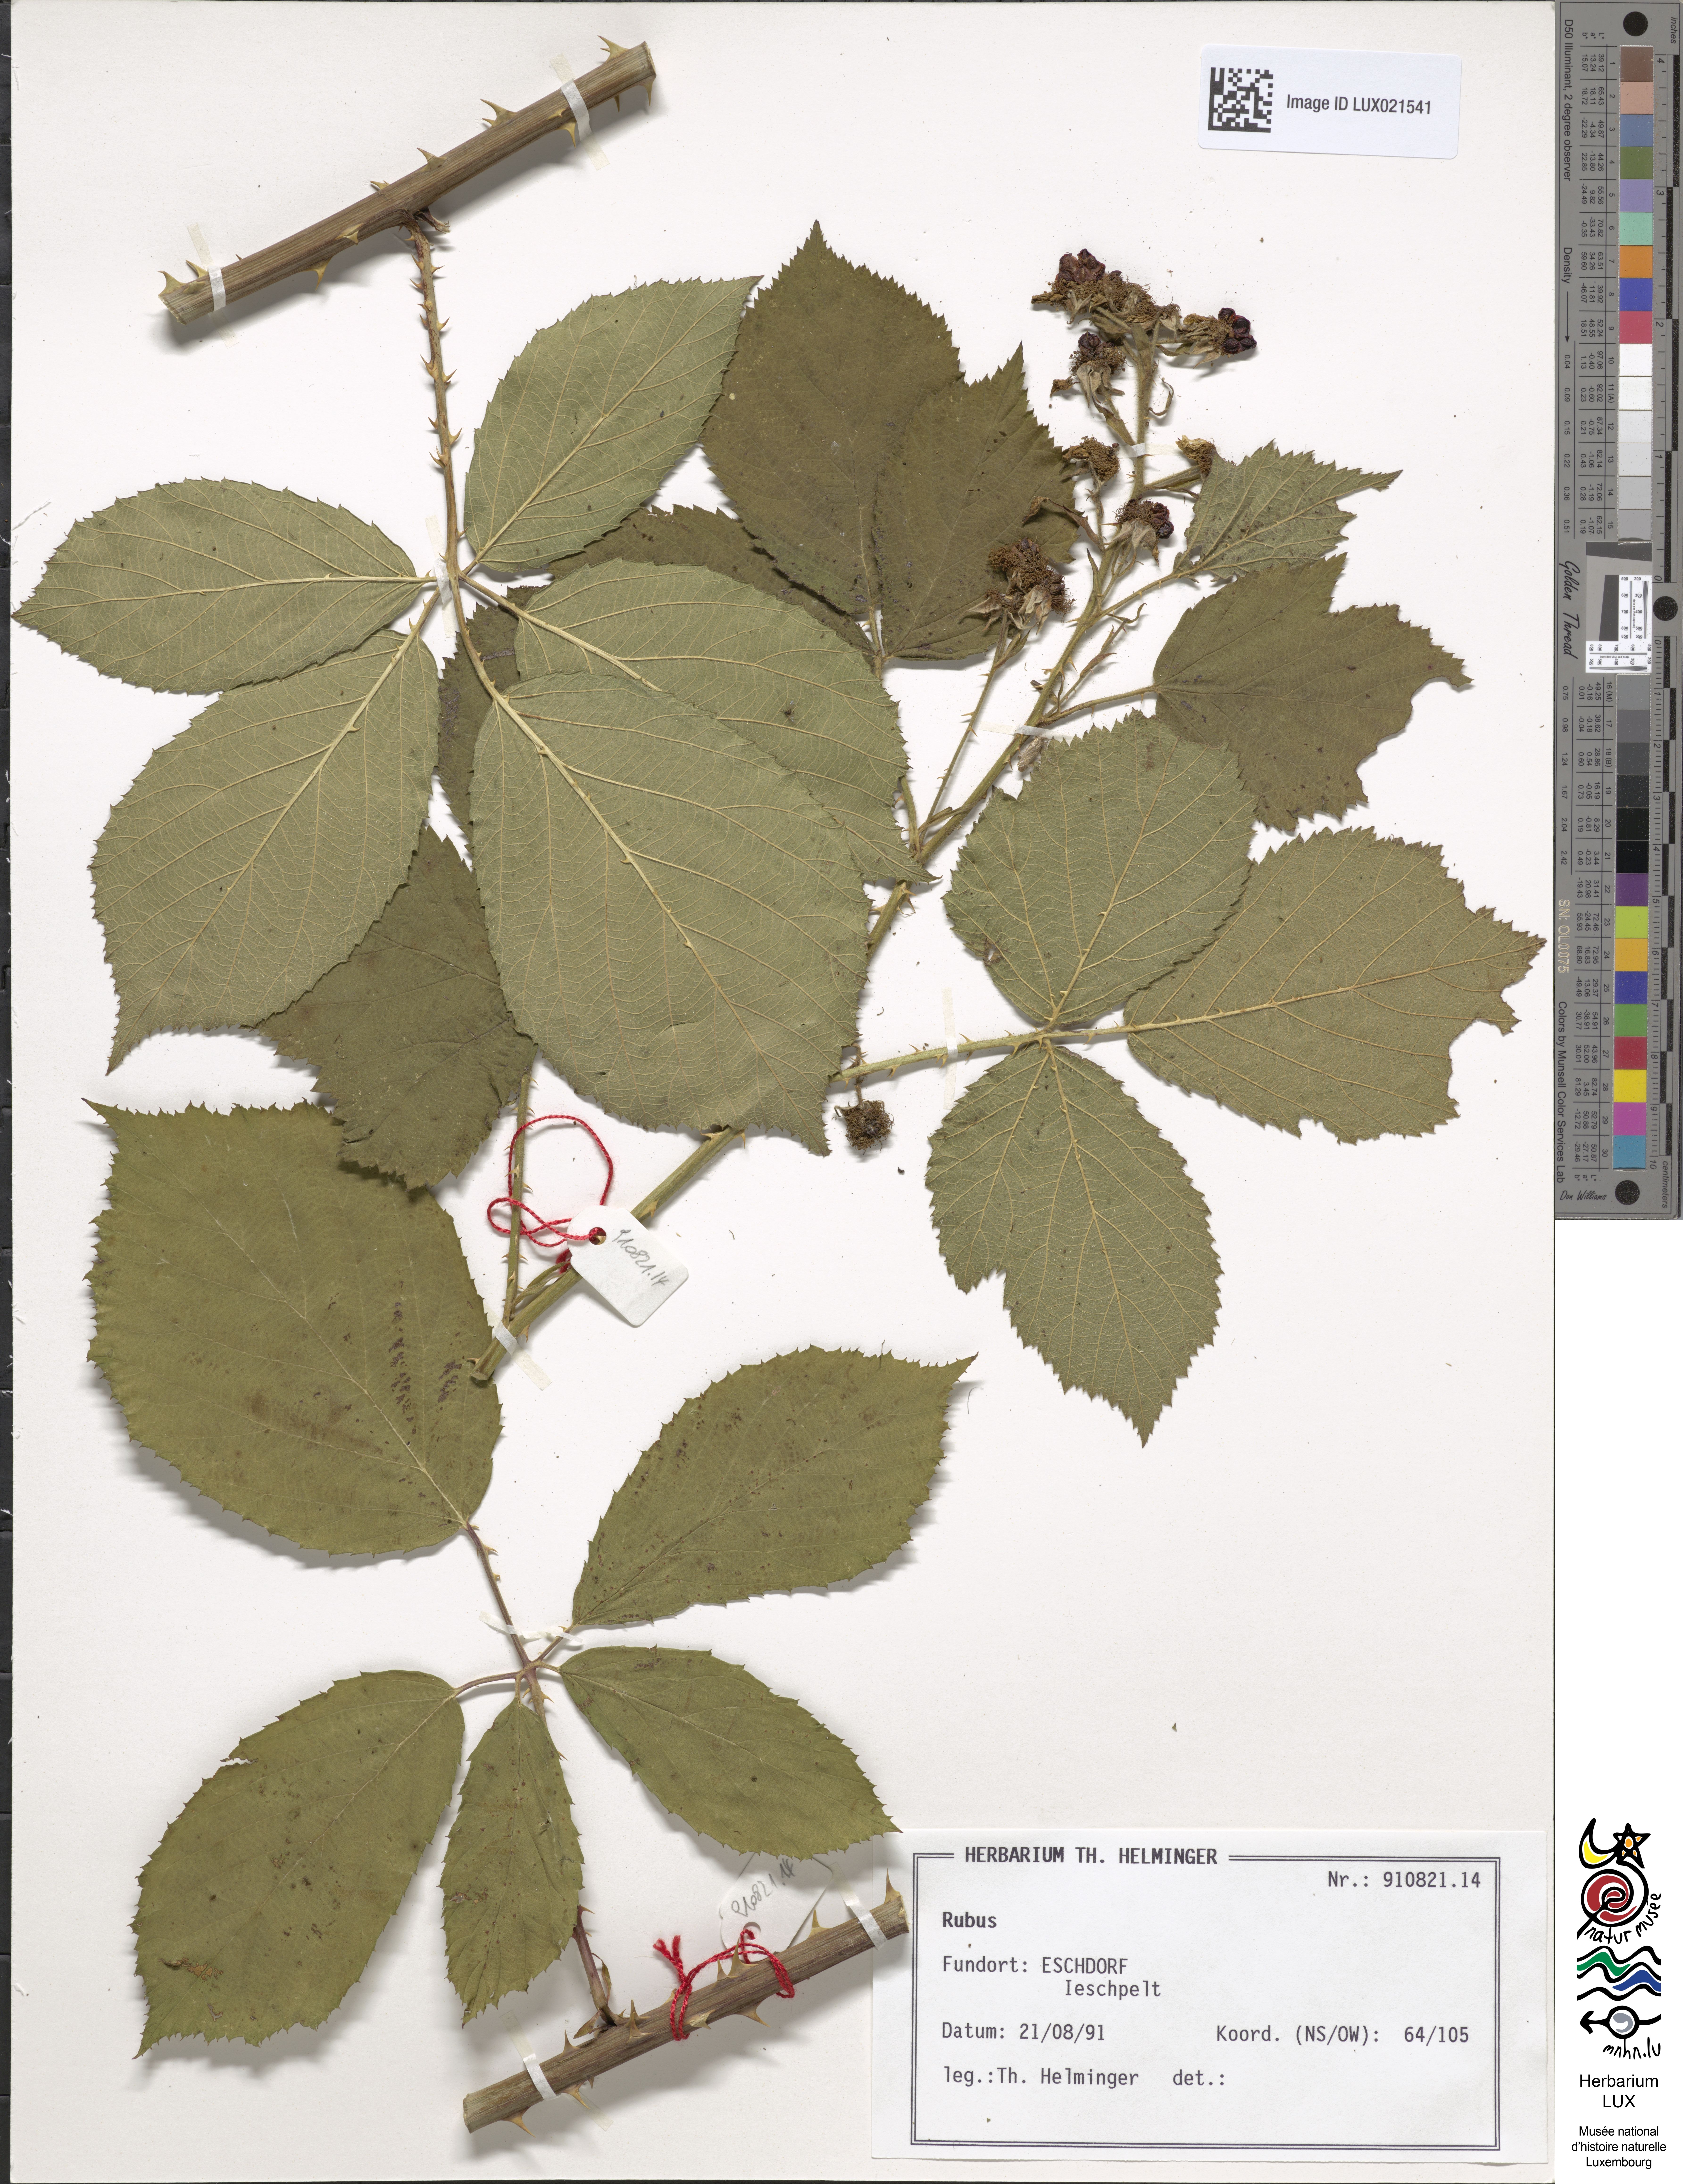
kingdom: Plantae
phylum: Tracheophyta
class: Magnoliopsida
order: Rosales
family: Rosaceae
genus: Rubus
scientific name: Rubus
